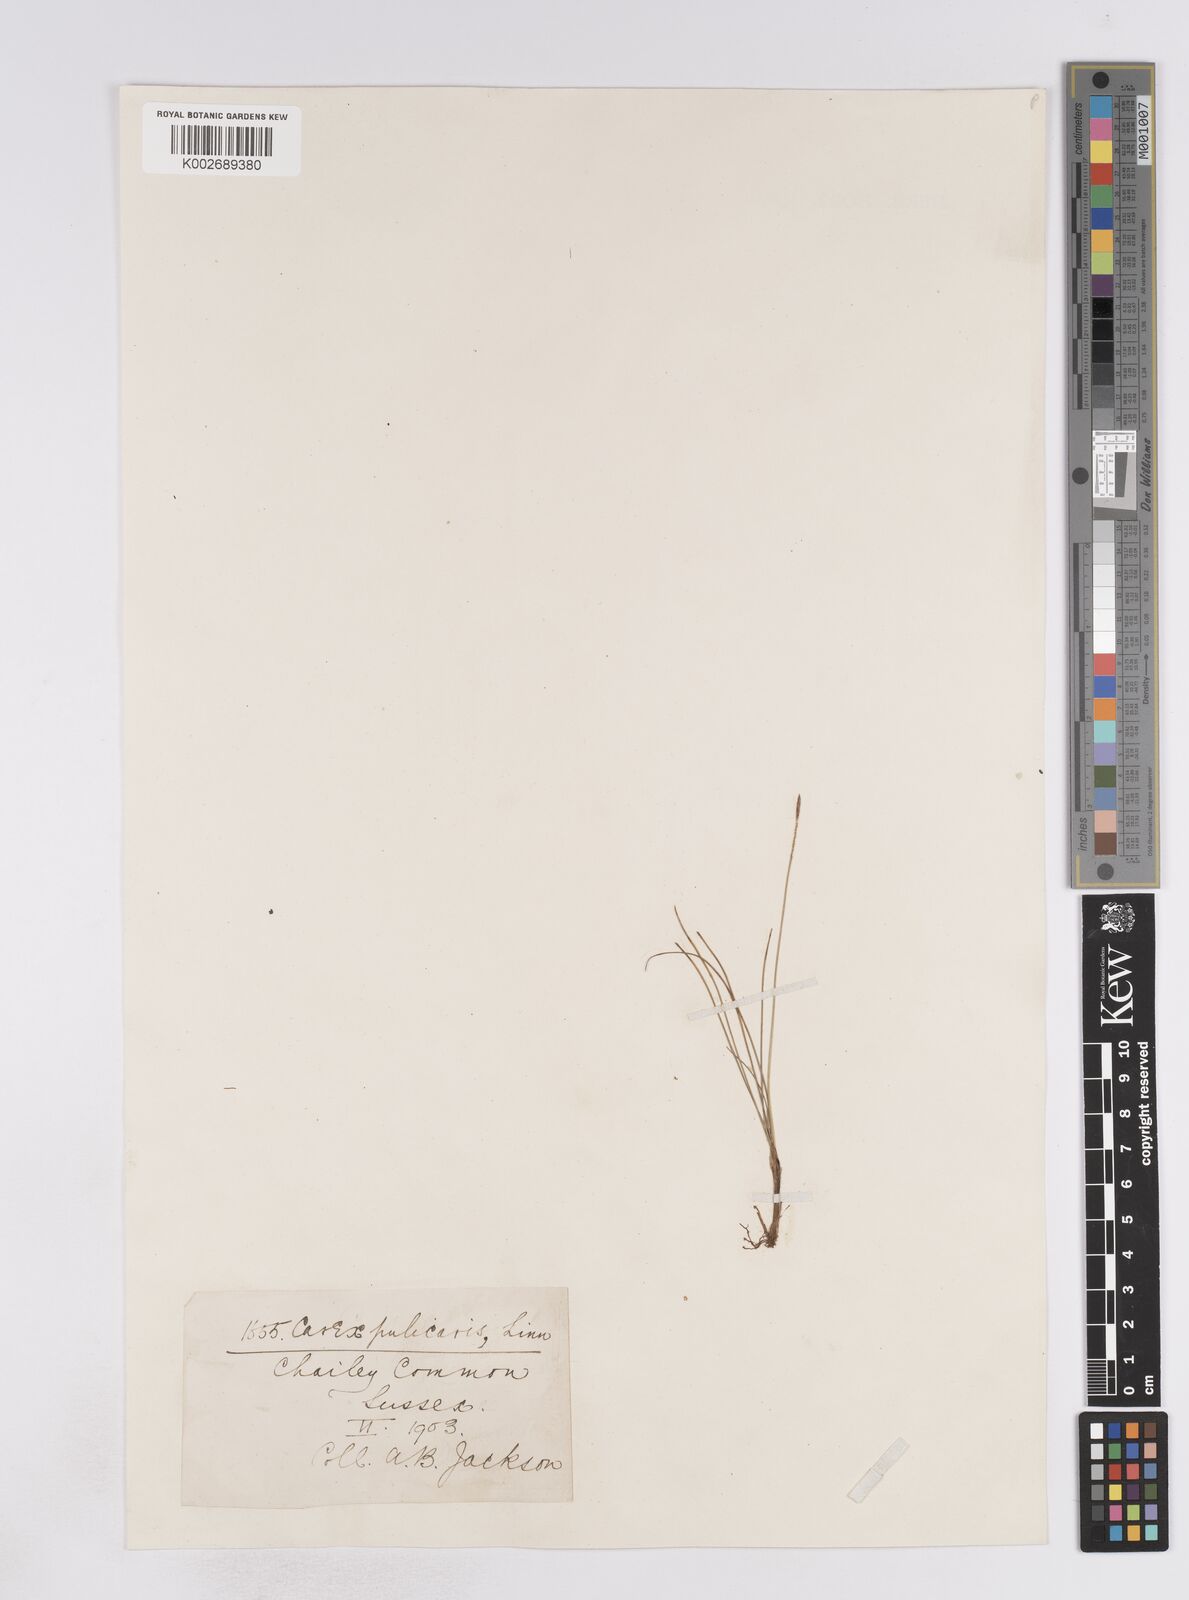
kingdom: Plantae
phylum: Tracheophyta
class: Liliopsida
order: Poales
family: Cyperaceae
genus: Carex
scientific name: Carex flacca
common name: Glaucous sedge
